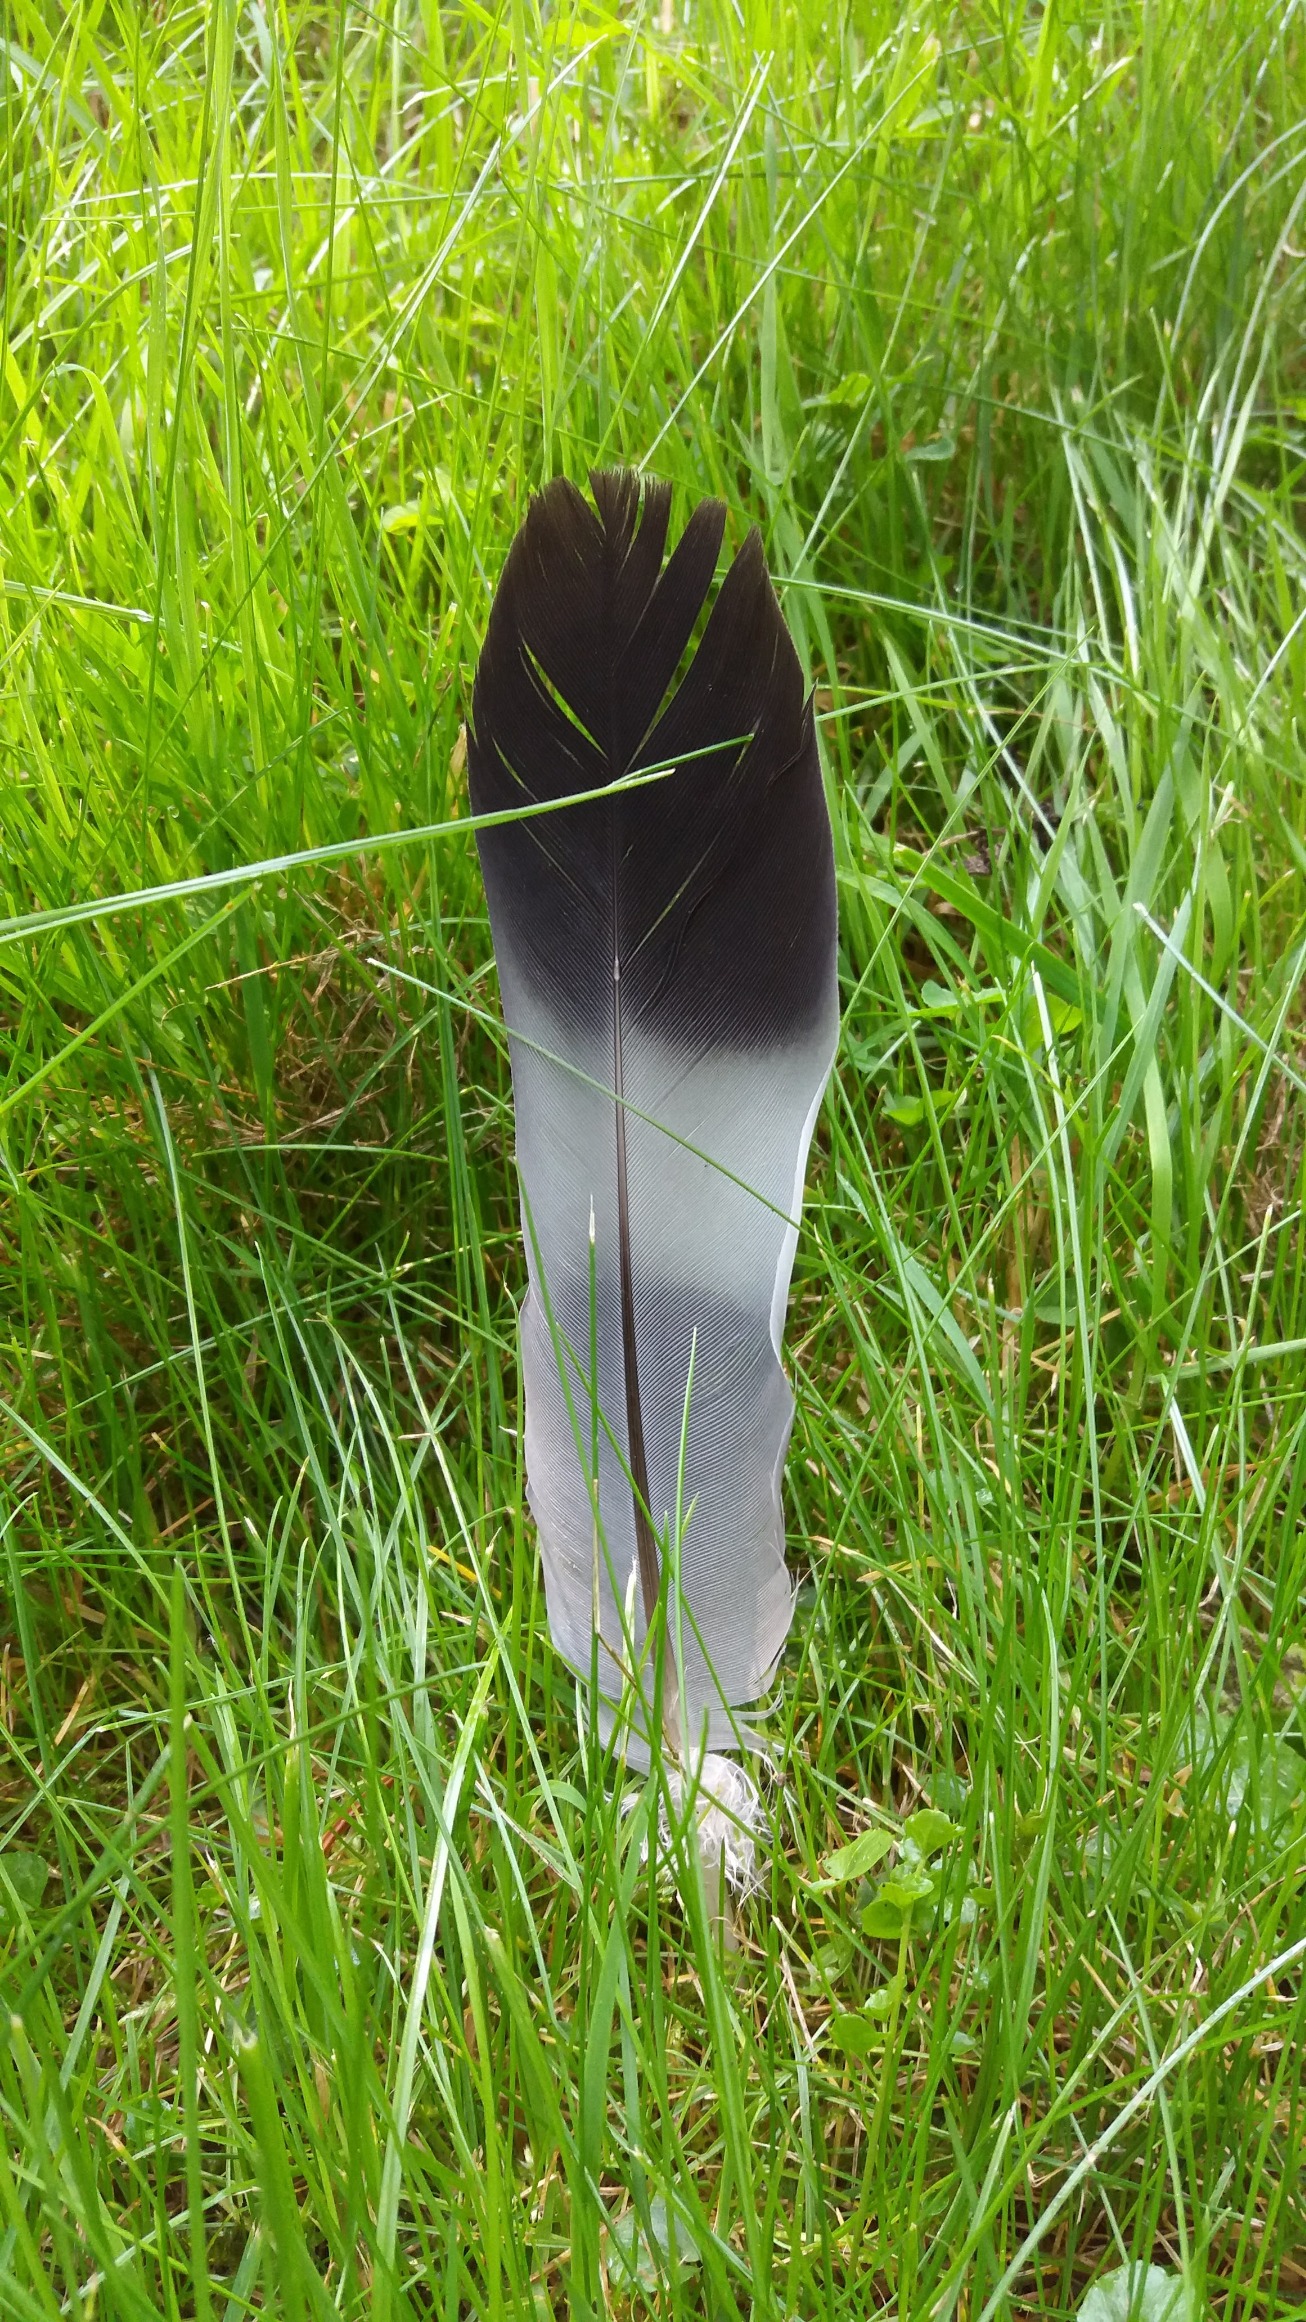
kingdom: Animalia
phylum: Chordata
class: Aves
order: Columbiformes
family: Columbidae
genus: Columba
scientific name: Columba palumbus
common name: Ringdue
